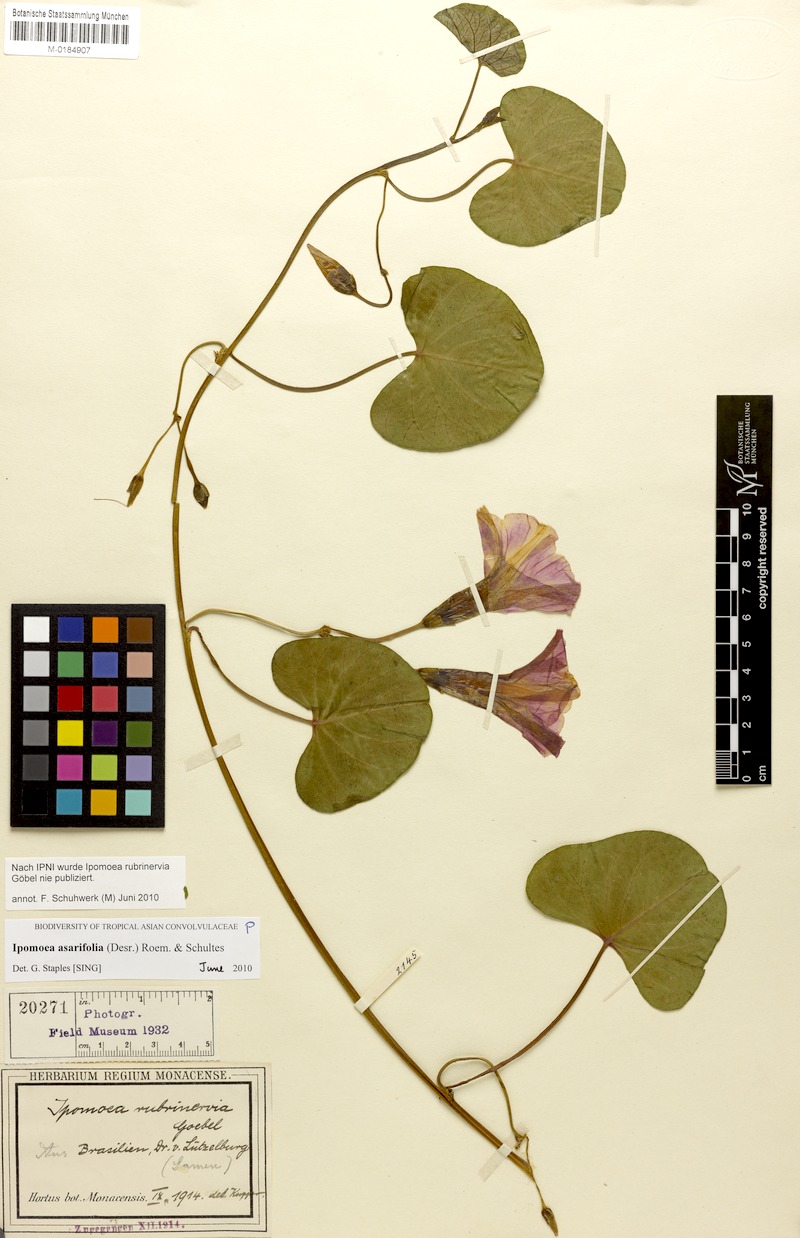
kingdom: Plantae
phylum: Tracheophyta
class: Magnoliopsida
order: Solanales
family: Convolvulaceae
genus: Ipomoea
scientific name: Ipomoea asarifolia
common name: Ginger-leaf morning-glory
